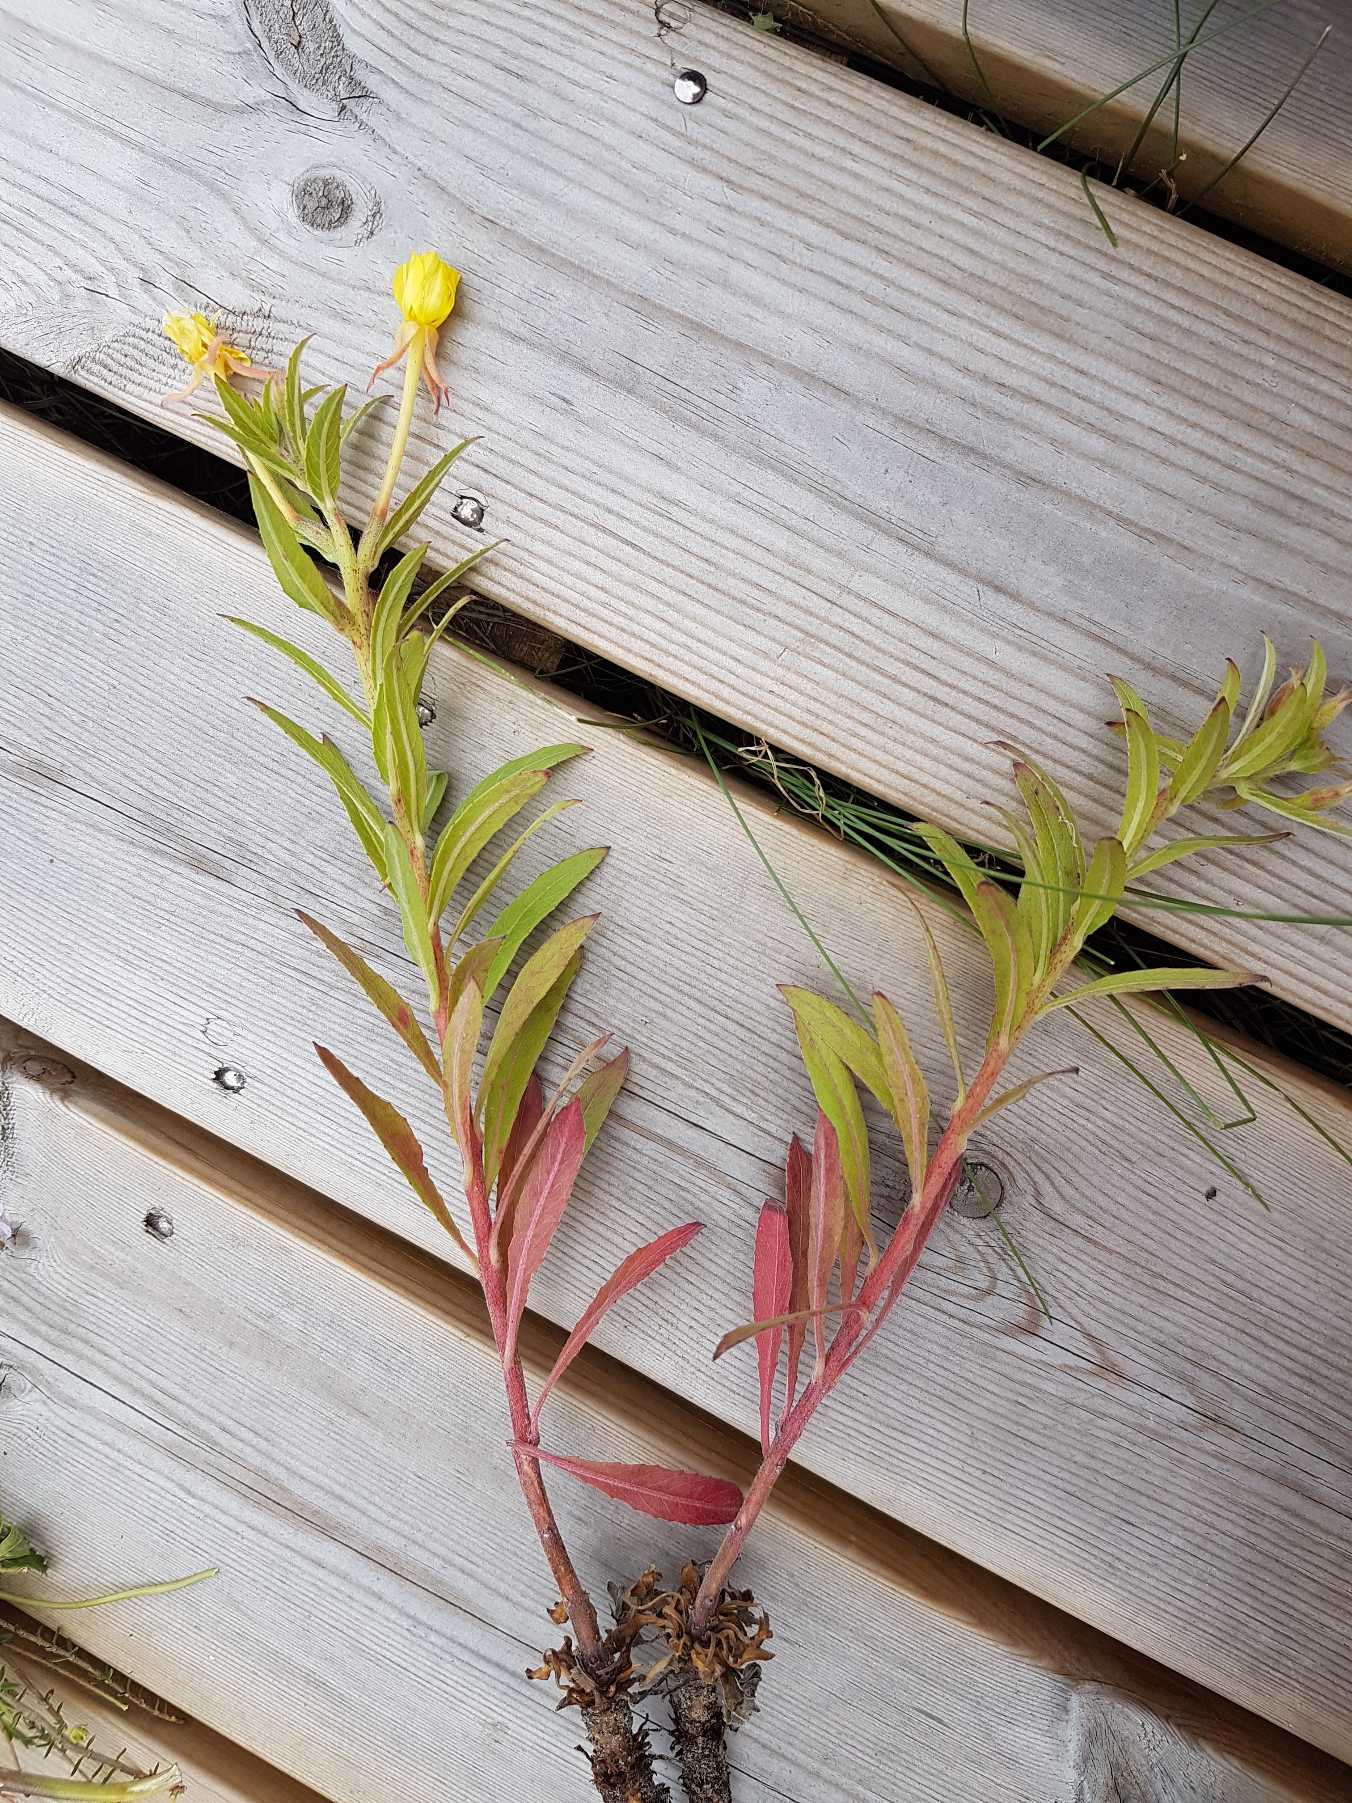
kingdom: Plantae
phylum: Tracheophyta
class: Magnoliopsida
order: Myrtales
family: Onagraceae
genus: Oenothera
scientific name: Oenothera ammophila
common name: Klit-natlys
